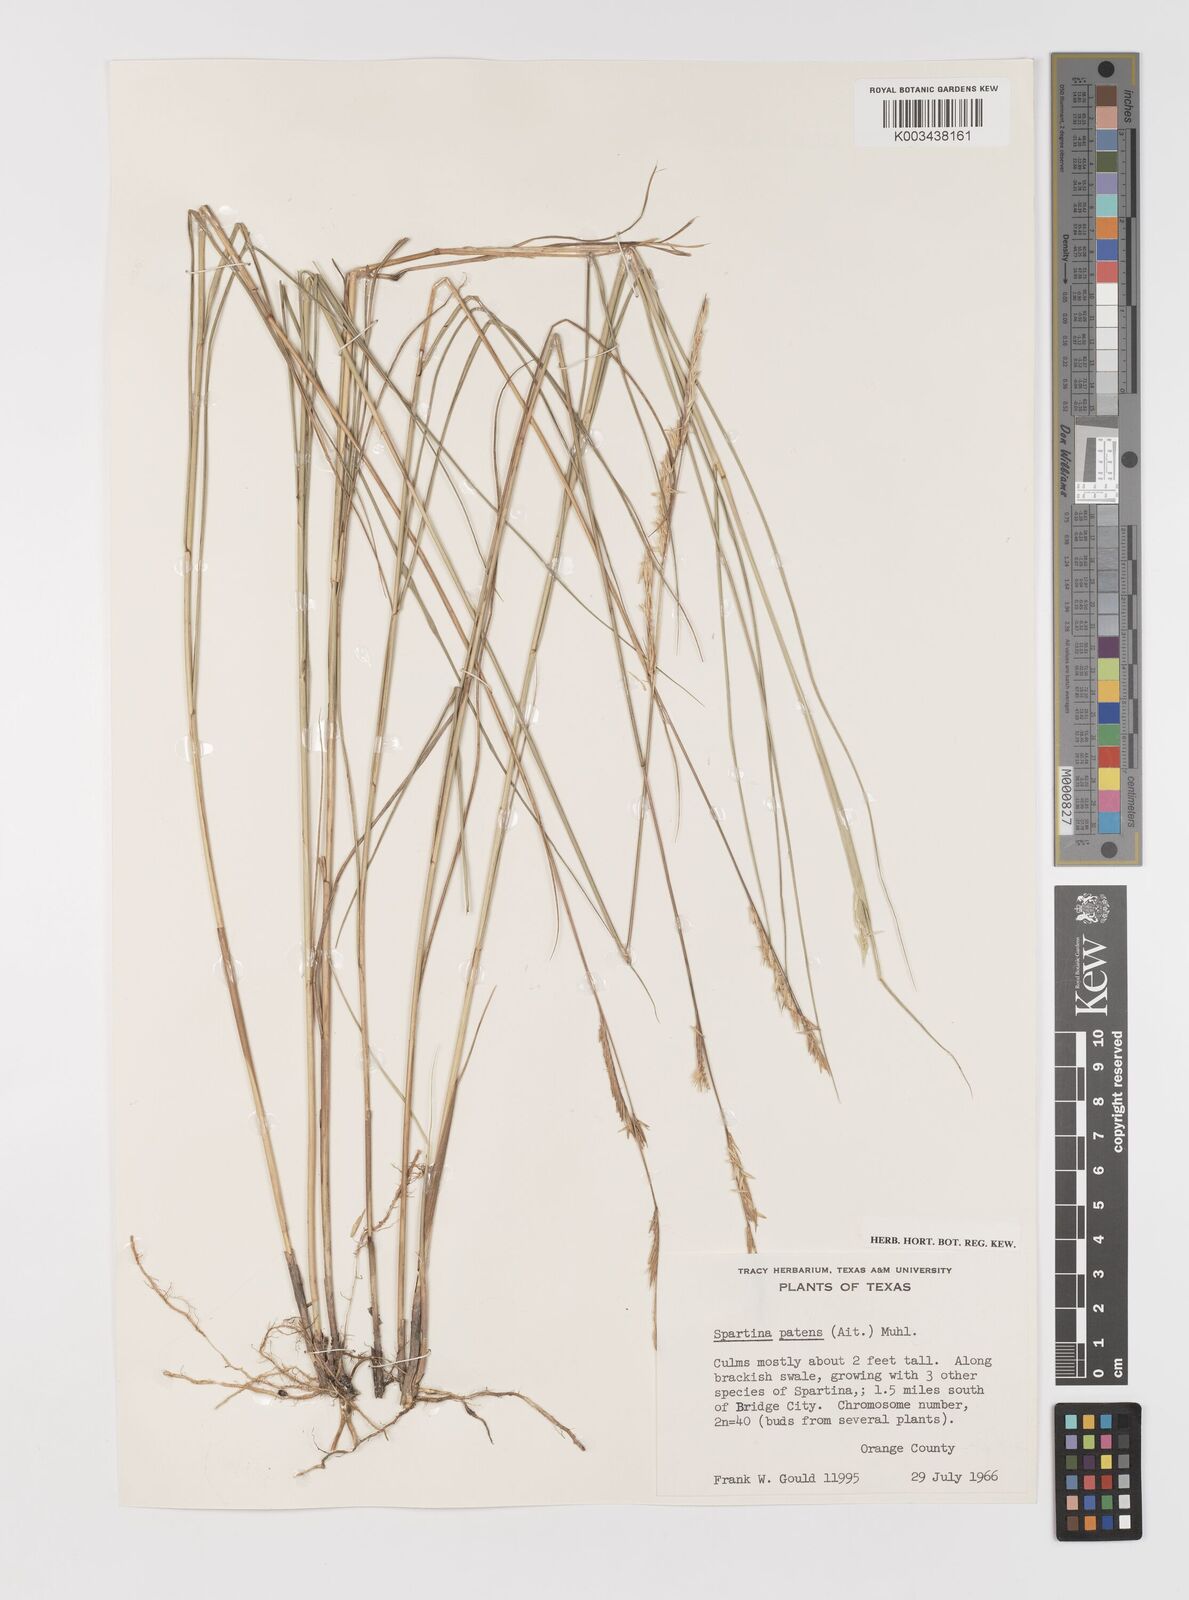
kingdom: Plantae
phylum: Tracheophyta
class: Liliopsida
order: Poales
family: Poaceae
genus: Sporobolus
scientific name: Sporobolus pumilus
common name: Highwater grass
